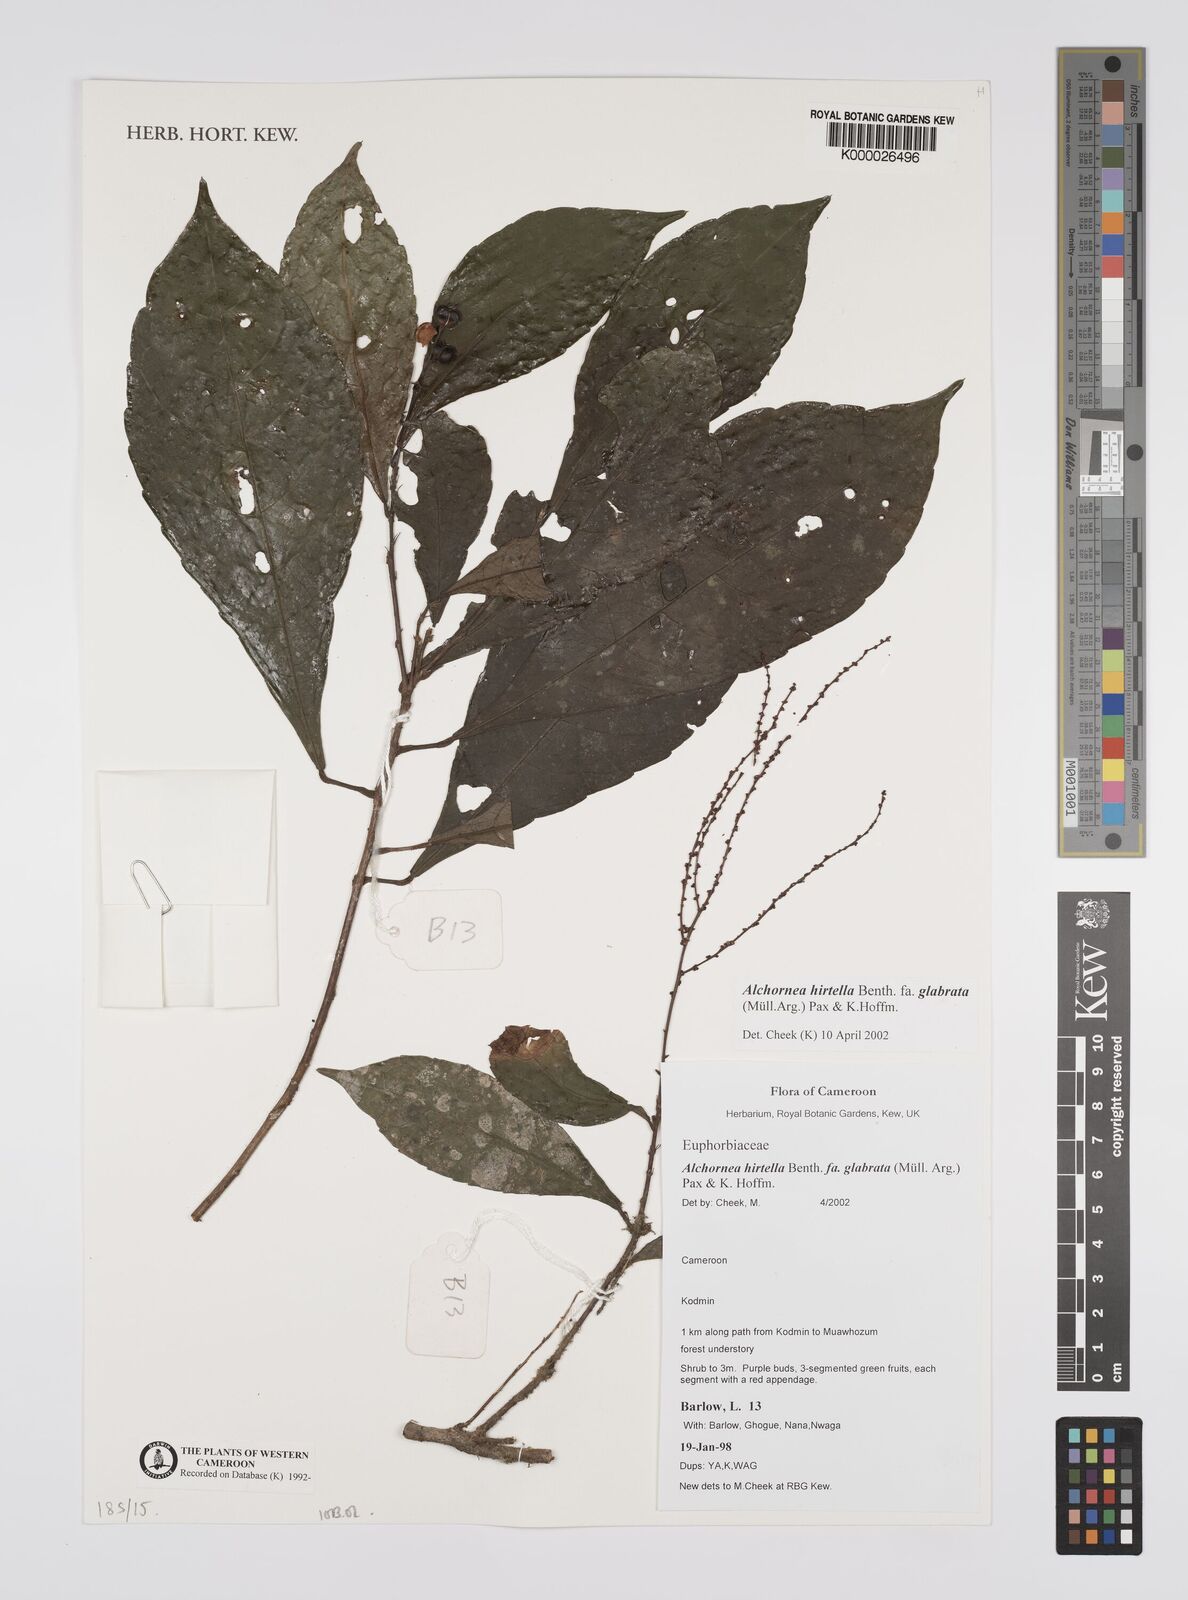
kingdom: Plantae
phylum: Tracheophyta
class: Magnoliopsida
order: Malpighiales
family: Euphorbiaceae
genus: Alchornea
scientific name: Alchornea hirtella
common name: Forest bead-string
